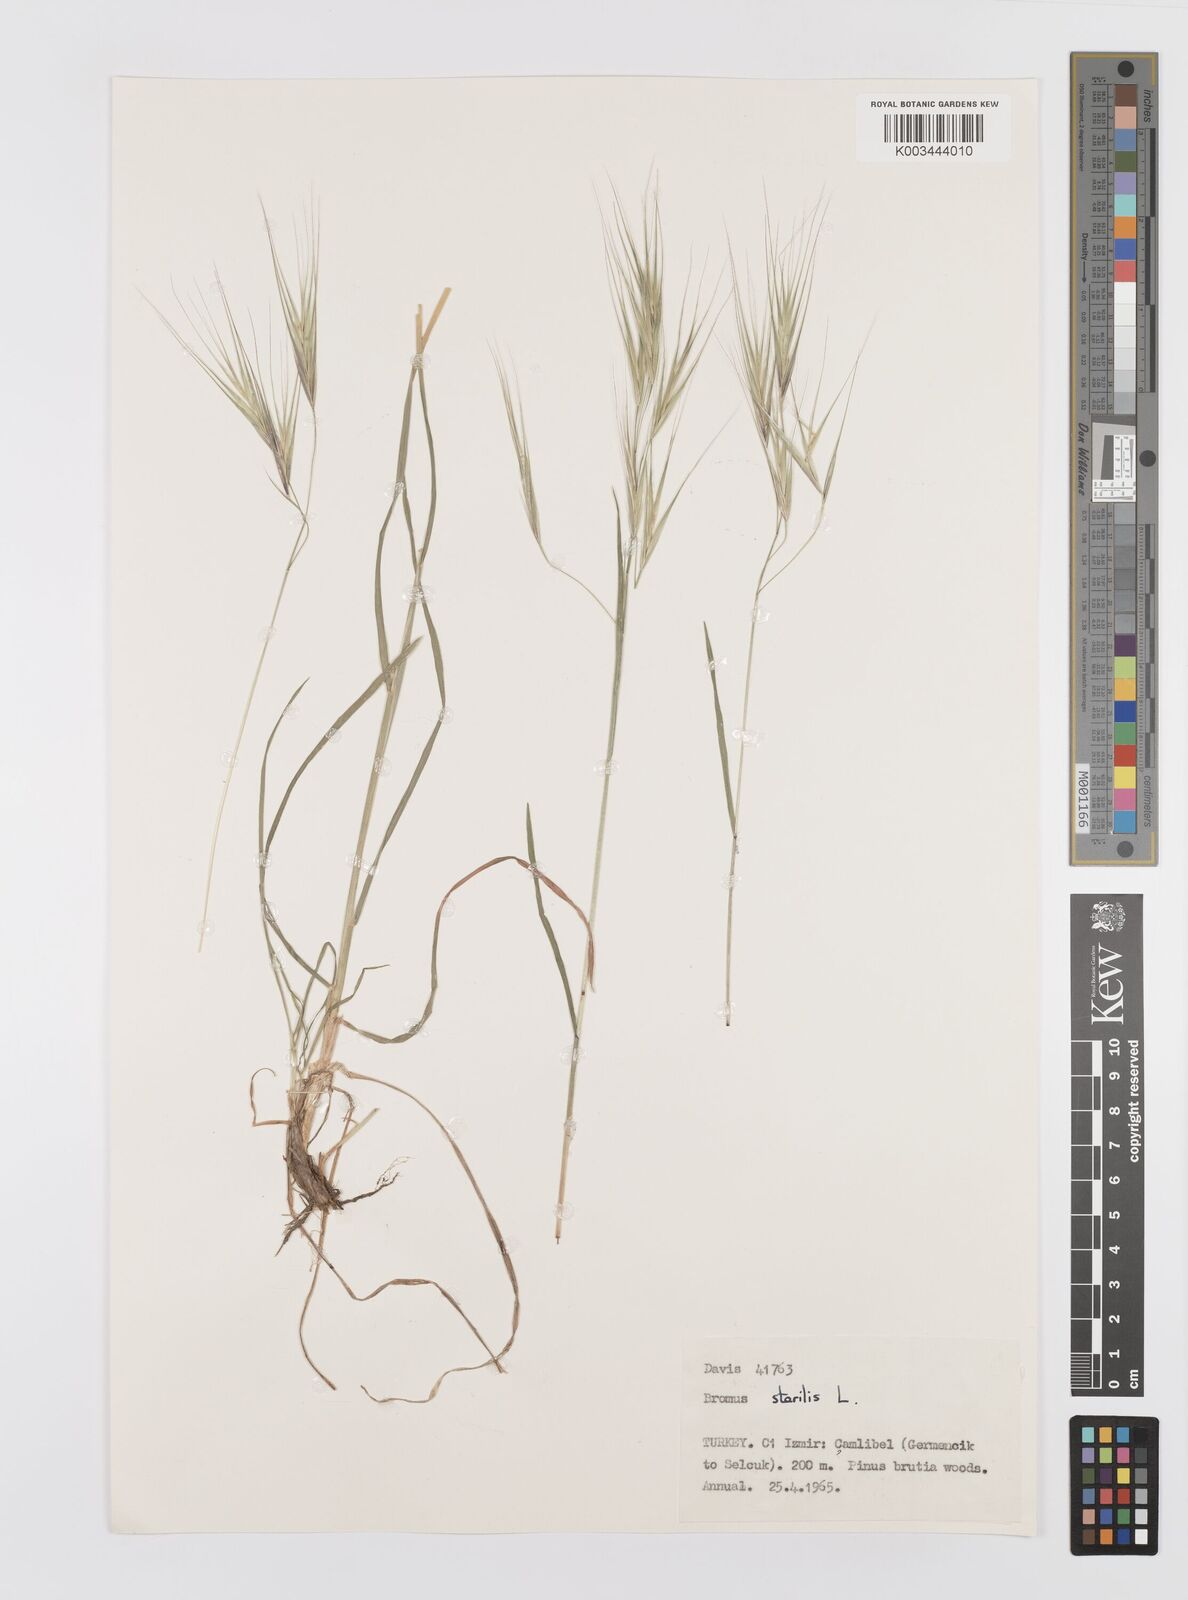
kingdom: Plantae
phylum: Tracheophyta
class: Liliopsida
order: Poales
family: Poaceae
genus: Bromus
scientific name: Bromus sterilis
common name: Poverty brome
